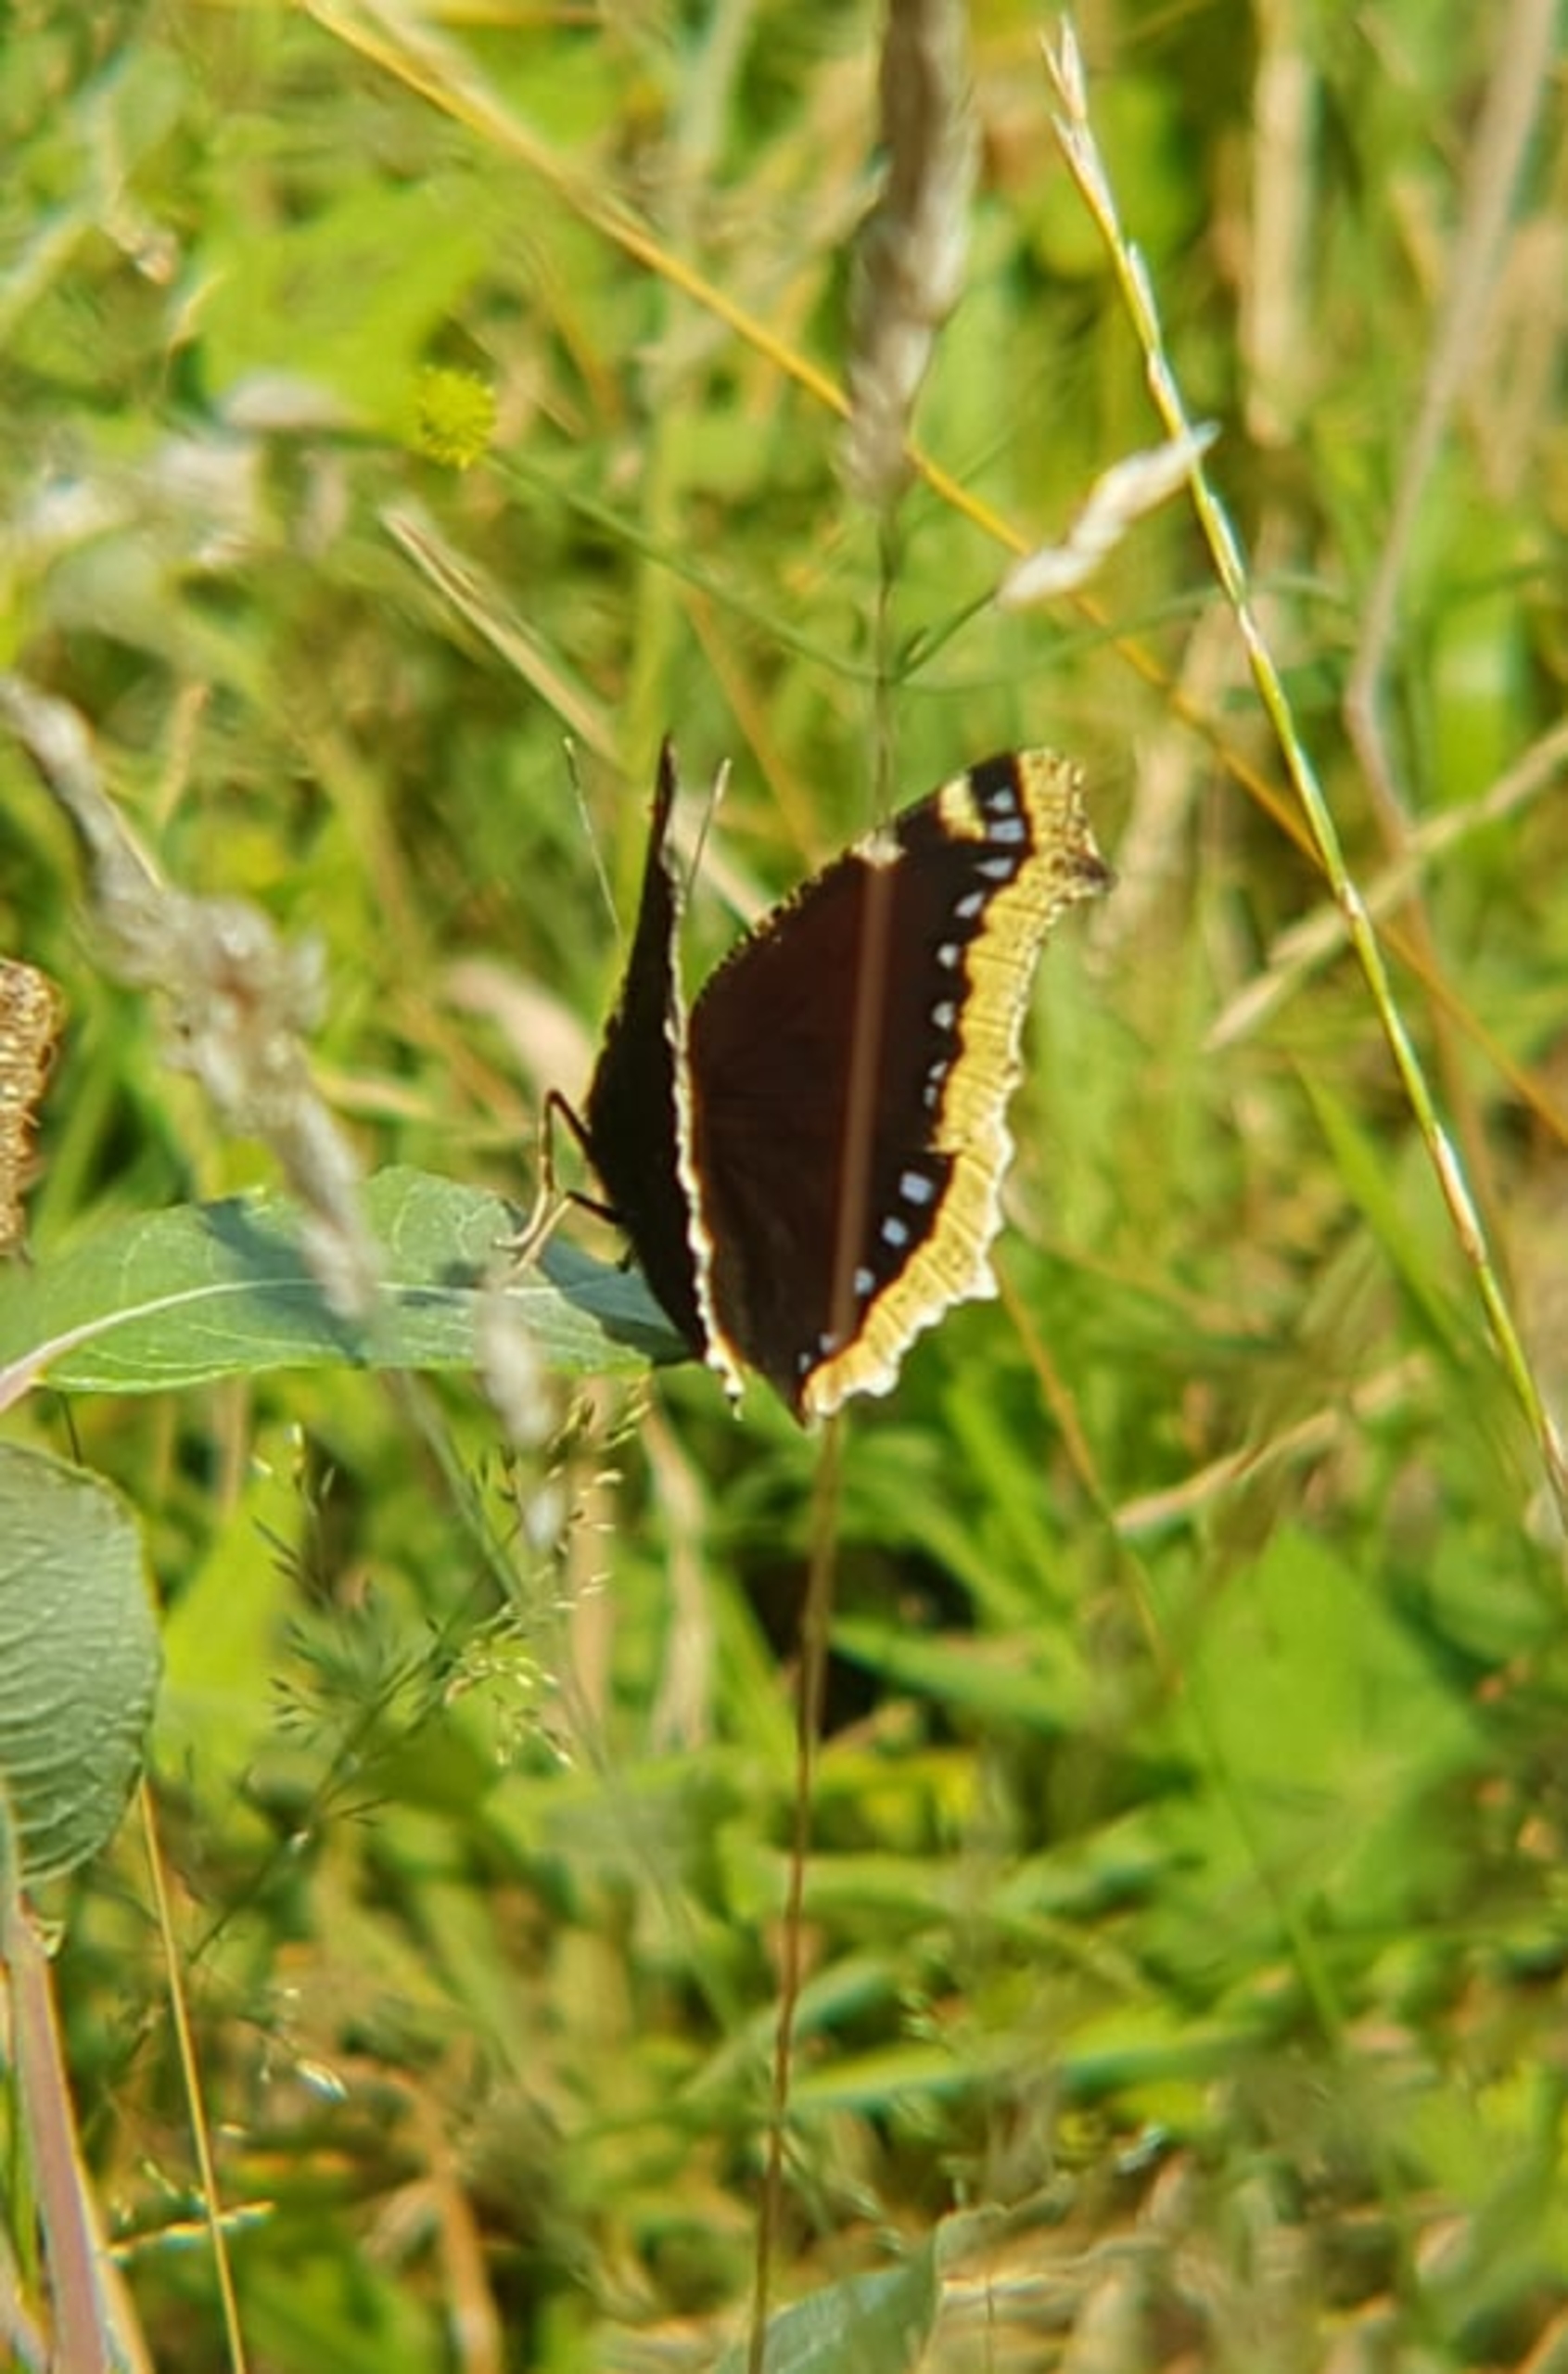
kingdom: Animalia
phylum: Arthropoda
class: Insecta
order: Lepidoptera
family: Nymphalidae
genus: Nymphalis
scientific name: Nymphalis antiopa
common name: Sørgekåbe
